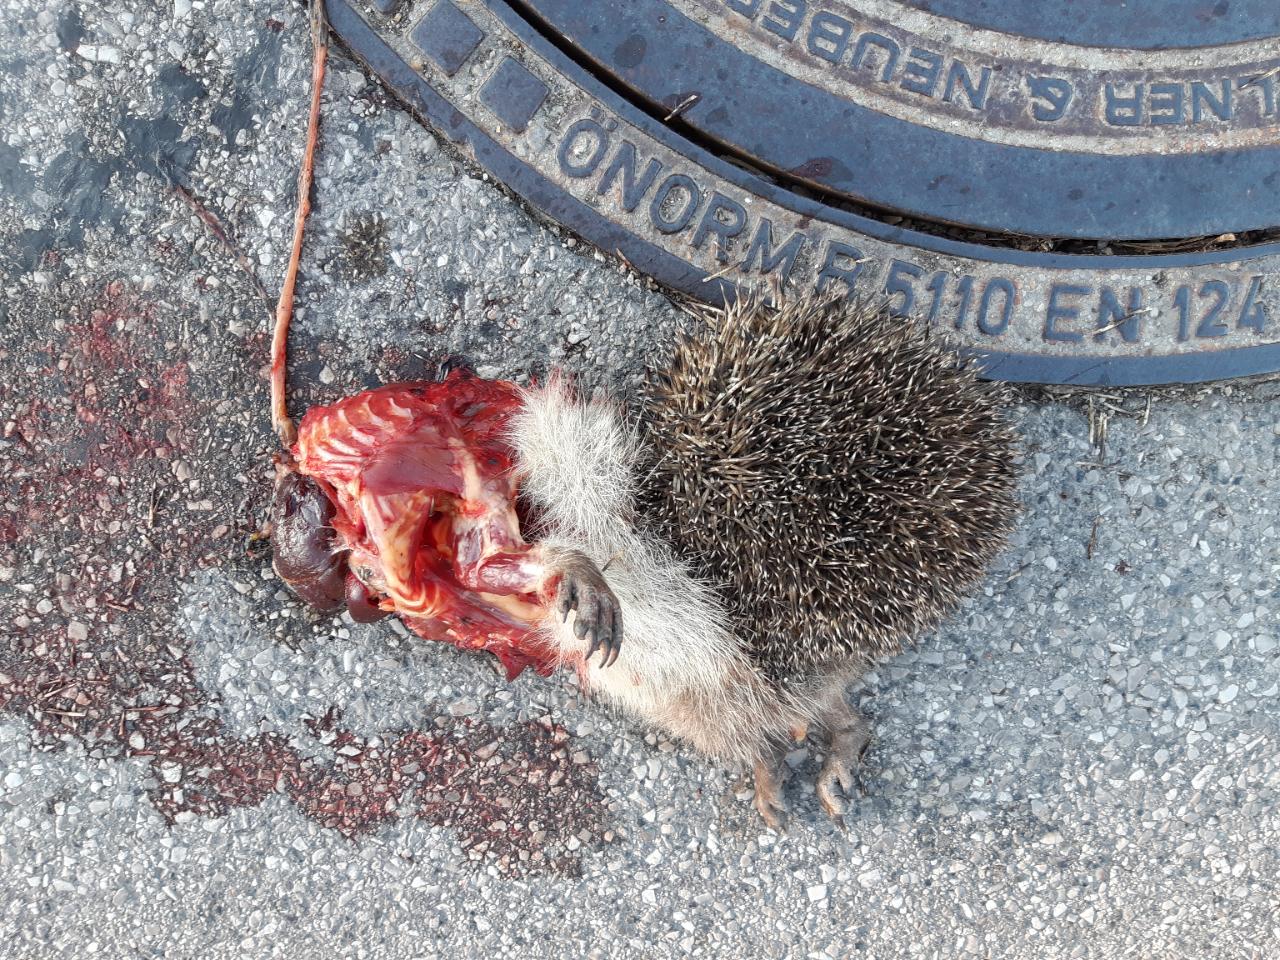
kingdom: Animalia
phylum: Chordata
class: Mammalia
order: Erinaceomorpha
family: Erinaceidae
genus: Erinaceus
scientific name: Erinaceus
